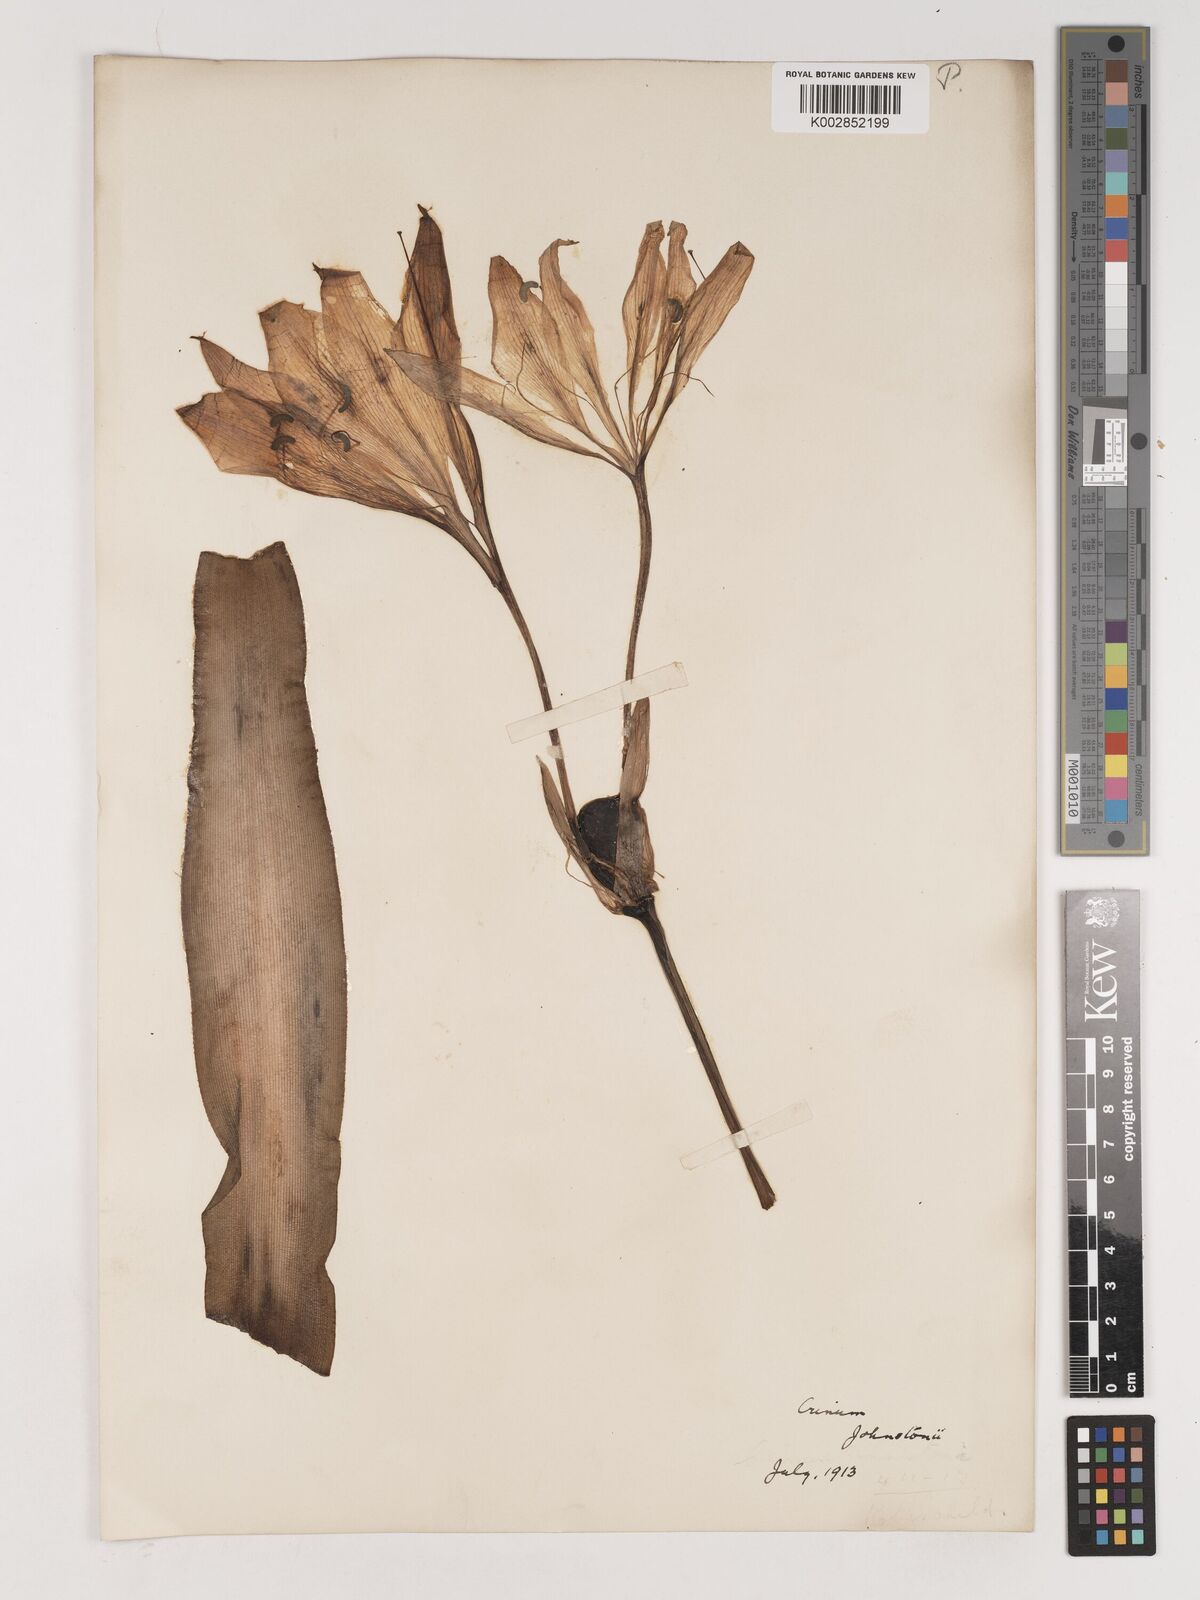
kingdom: Plantae
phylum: Tracheophyta
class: Liliopsida
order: Asparagales
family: Amaryllidaceae
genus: Crinum
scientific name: Crinum macowanii
